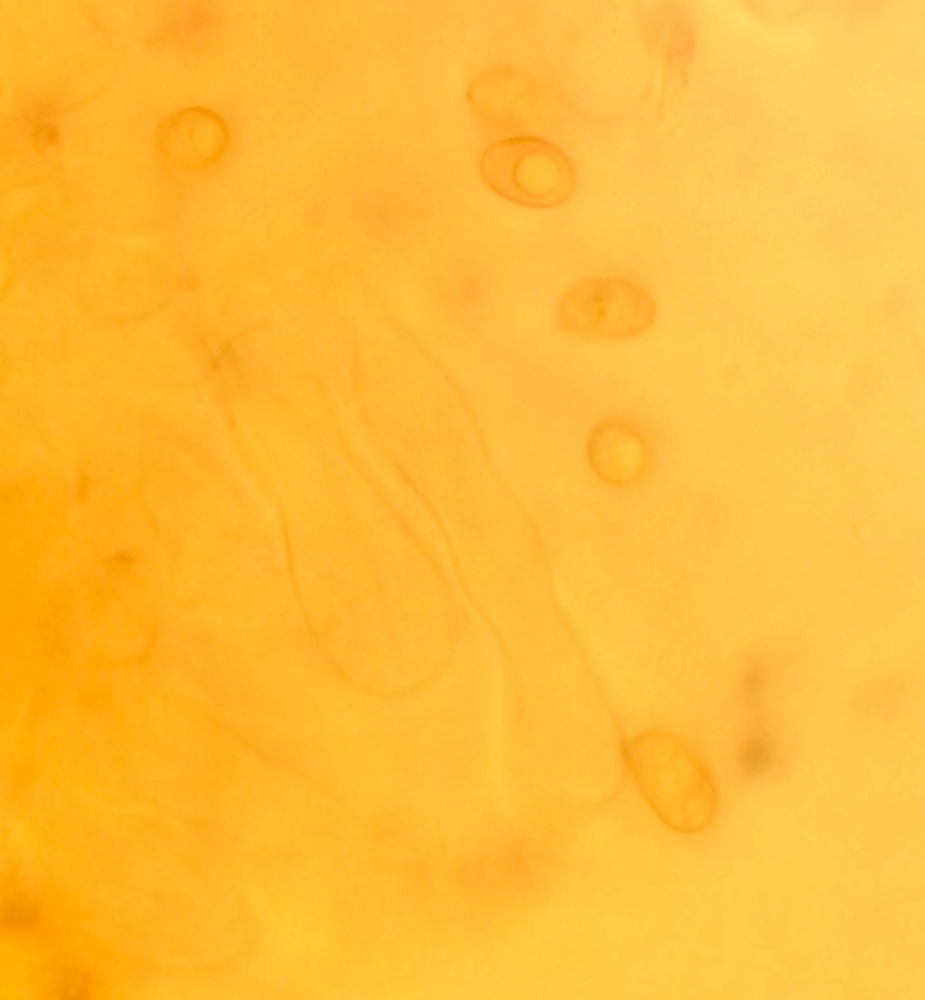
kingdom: Fungi
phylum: Basidiomycota
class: Agaricomycetes
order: Agaricales
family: Hydnangiaceae
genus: Laccaria
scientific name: Laccaria laccata
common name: rød ametysthat
